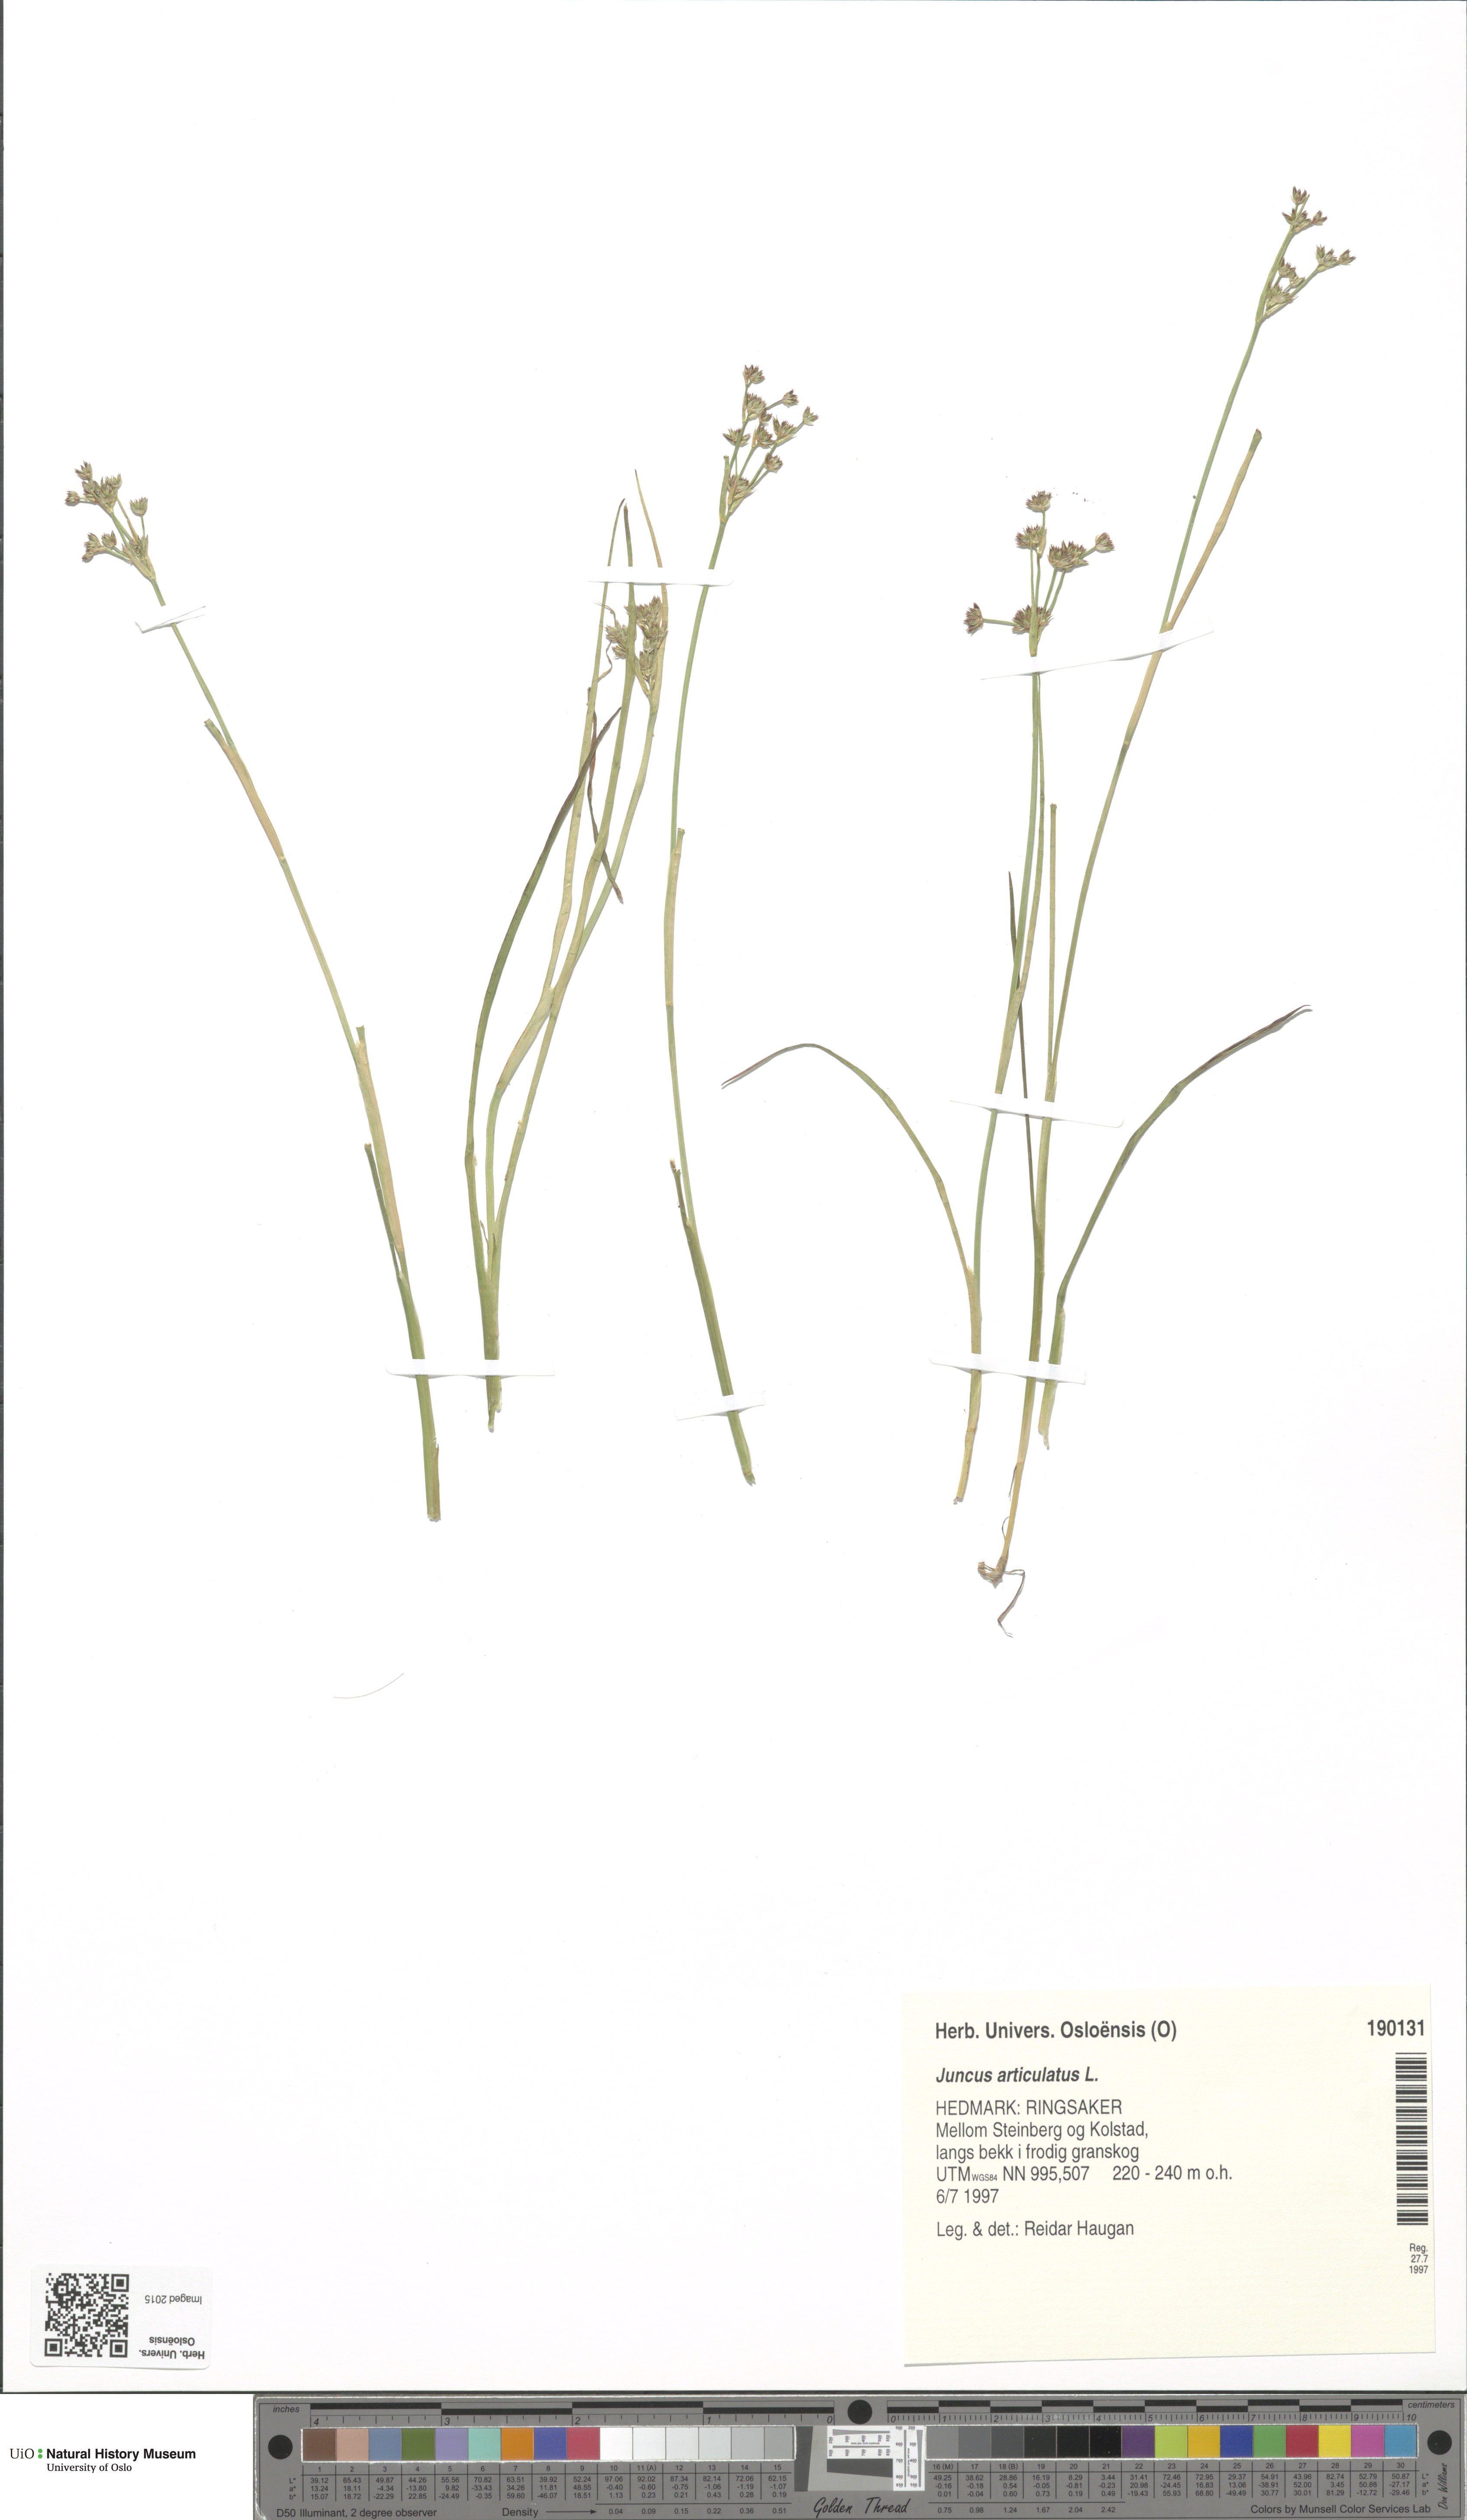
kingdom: Plantae
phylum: Tracheophyta
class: Liliopsida
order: Poales
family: Juncaceae
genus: Juncus
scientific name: Juncus articulatus
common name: Jointed rush
